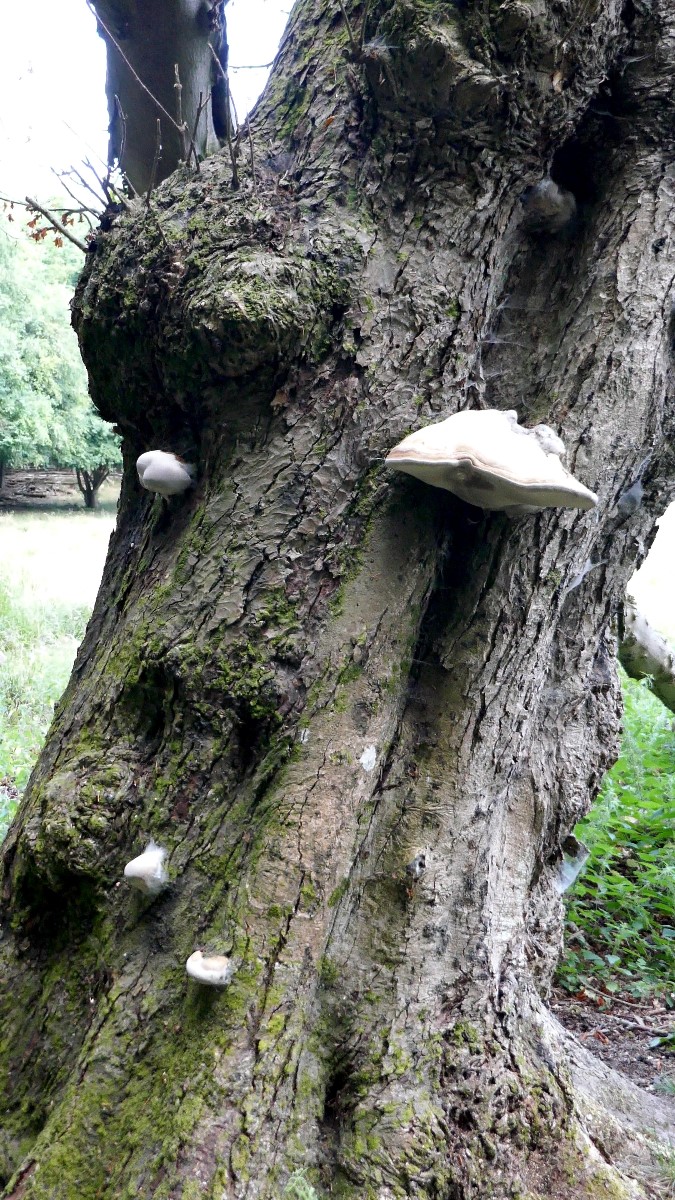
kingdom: Fungi
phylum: Basidiomycota
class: Agaricomycetes
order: Polyporales
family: Polyporaceae
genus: Fomes
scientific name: Fomes fomentarius
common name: tøndersvamp
